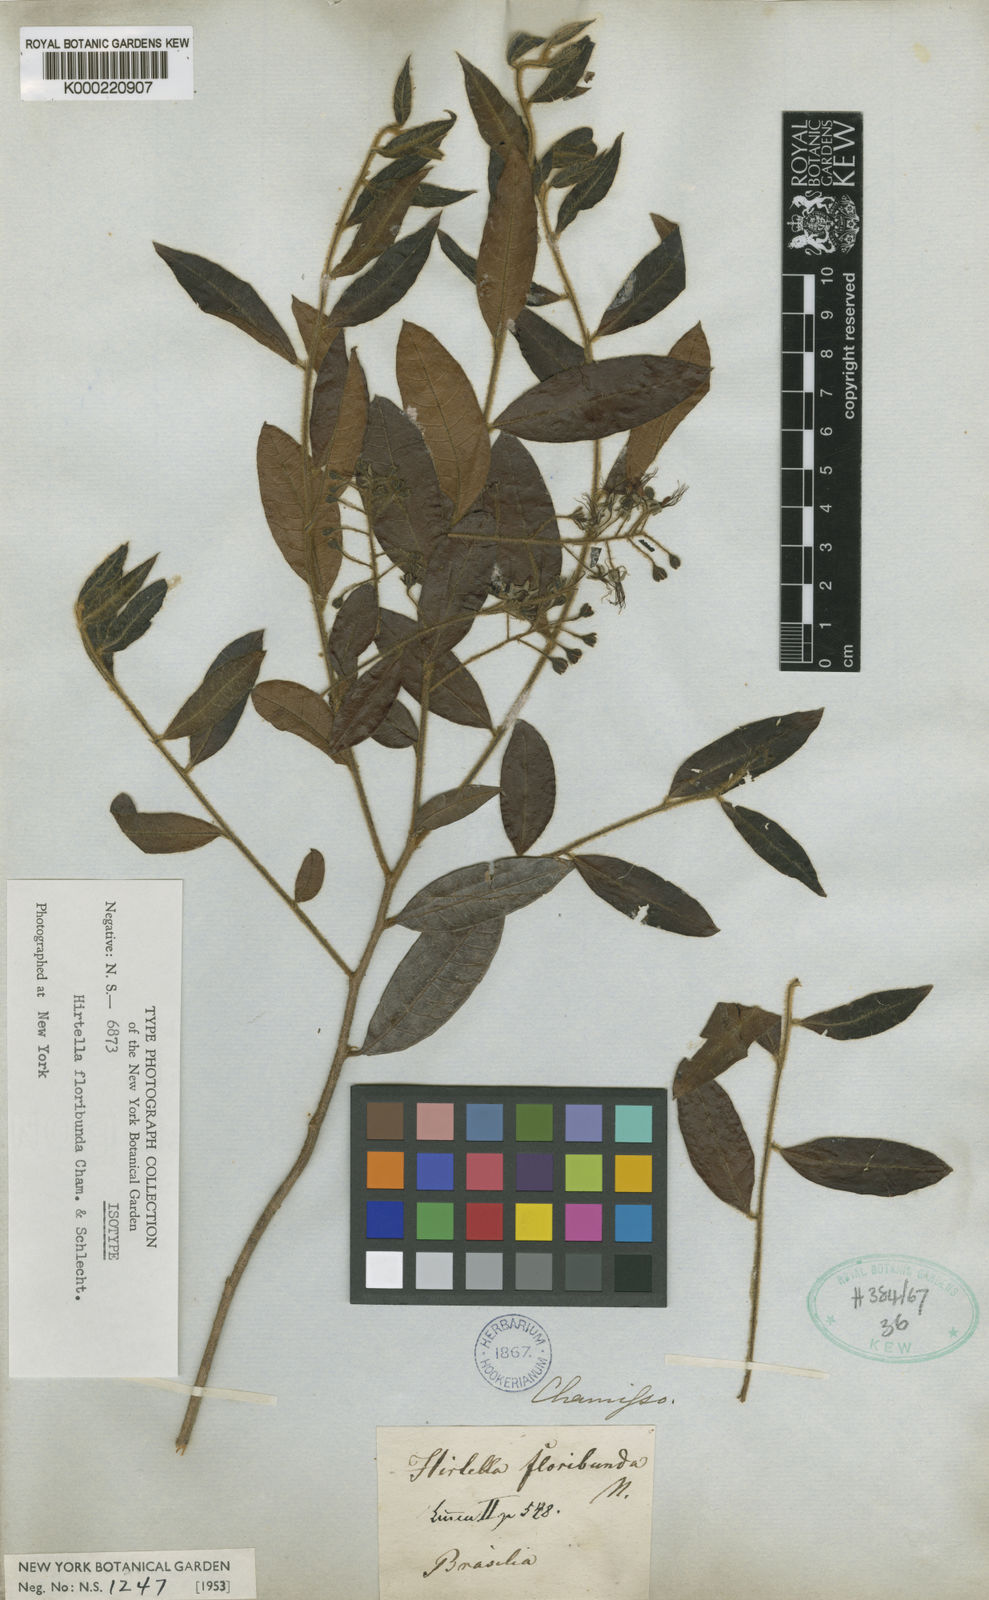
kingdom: Plantae
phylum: Tracheophyta
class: Magnoliopsida
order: Malpighiales
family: Chrysobalanaceae
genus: Hirtella
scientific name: Hirtella floribunda
